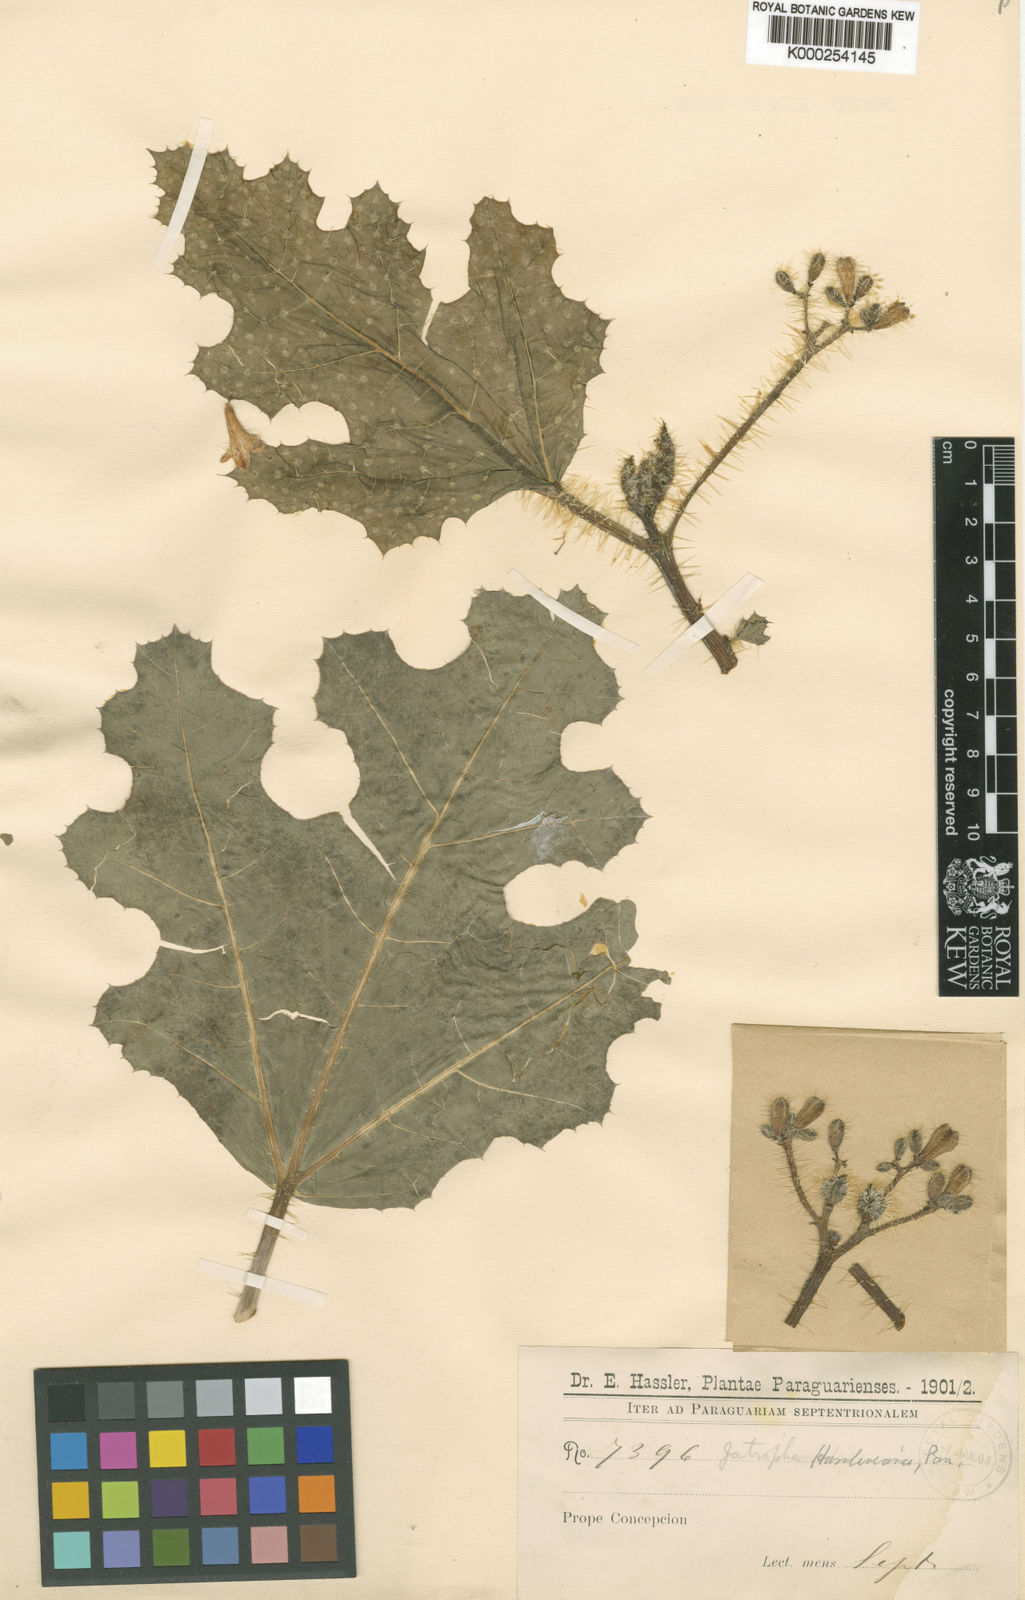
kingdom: Plantae
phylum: Tracheophyta
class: Magnoliopsida
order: Malpighiales
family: Euphorbiaceae
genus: Cnidoscolus
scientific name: Cnidoscolus albomaculatus
